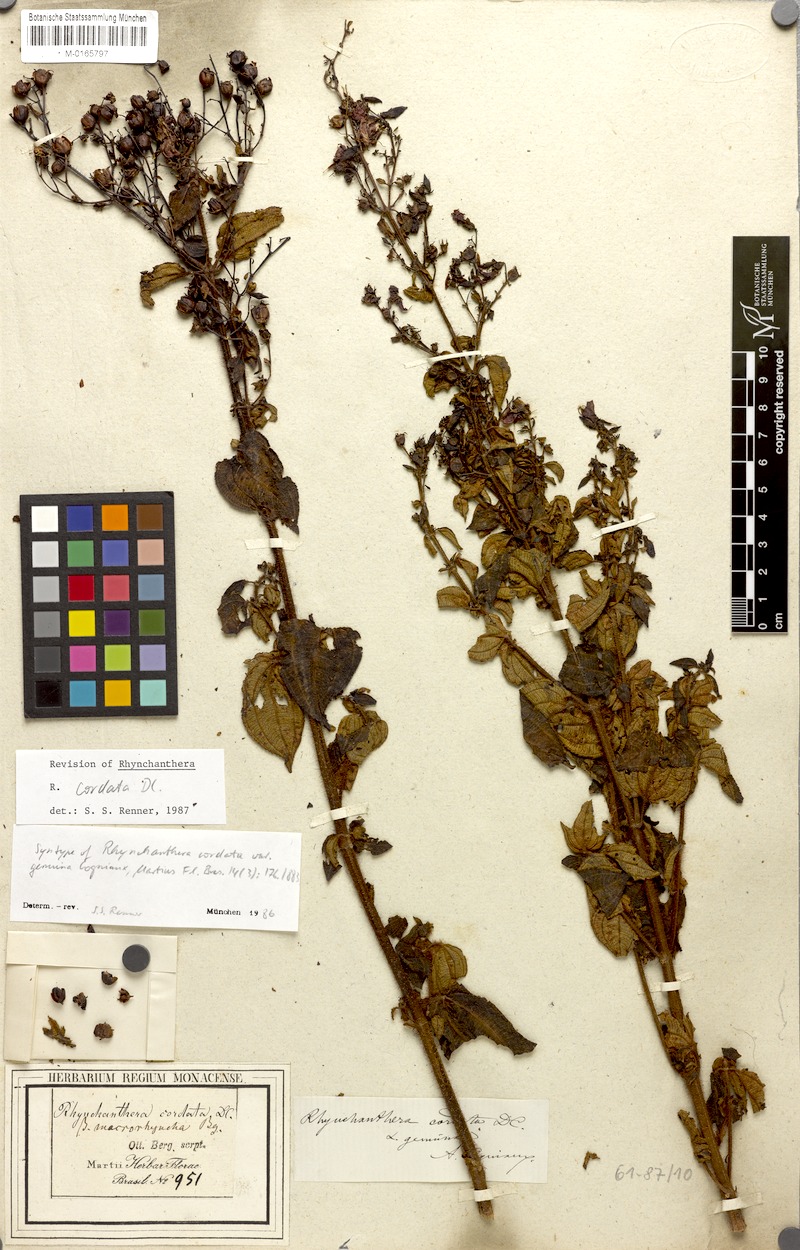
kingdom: Plantae
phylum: Tracheophyta
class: Magnoliopsida
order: Myrtales
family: Melastomataceae
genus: Rhynchanthera
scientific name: Rhynchanthera cordata
